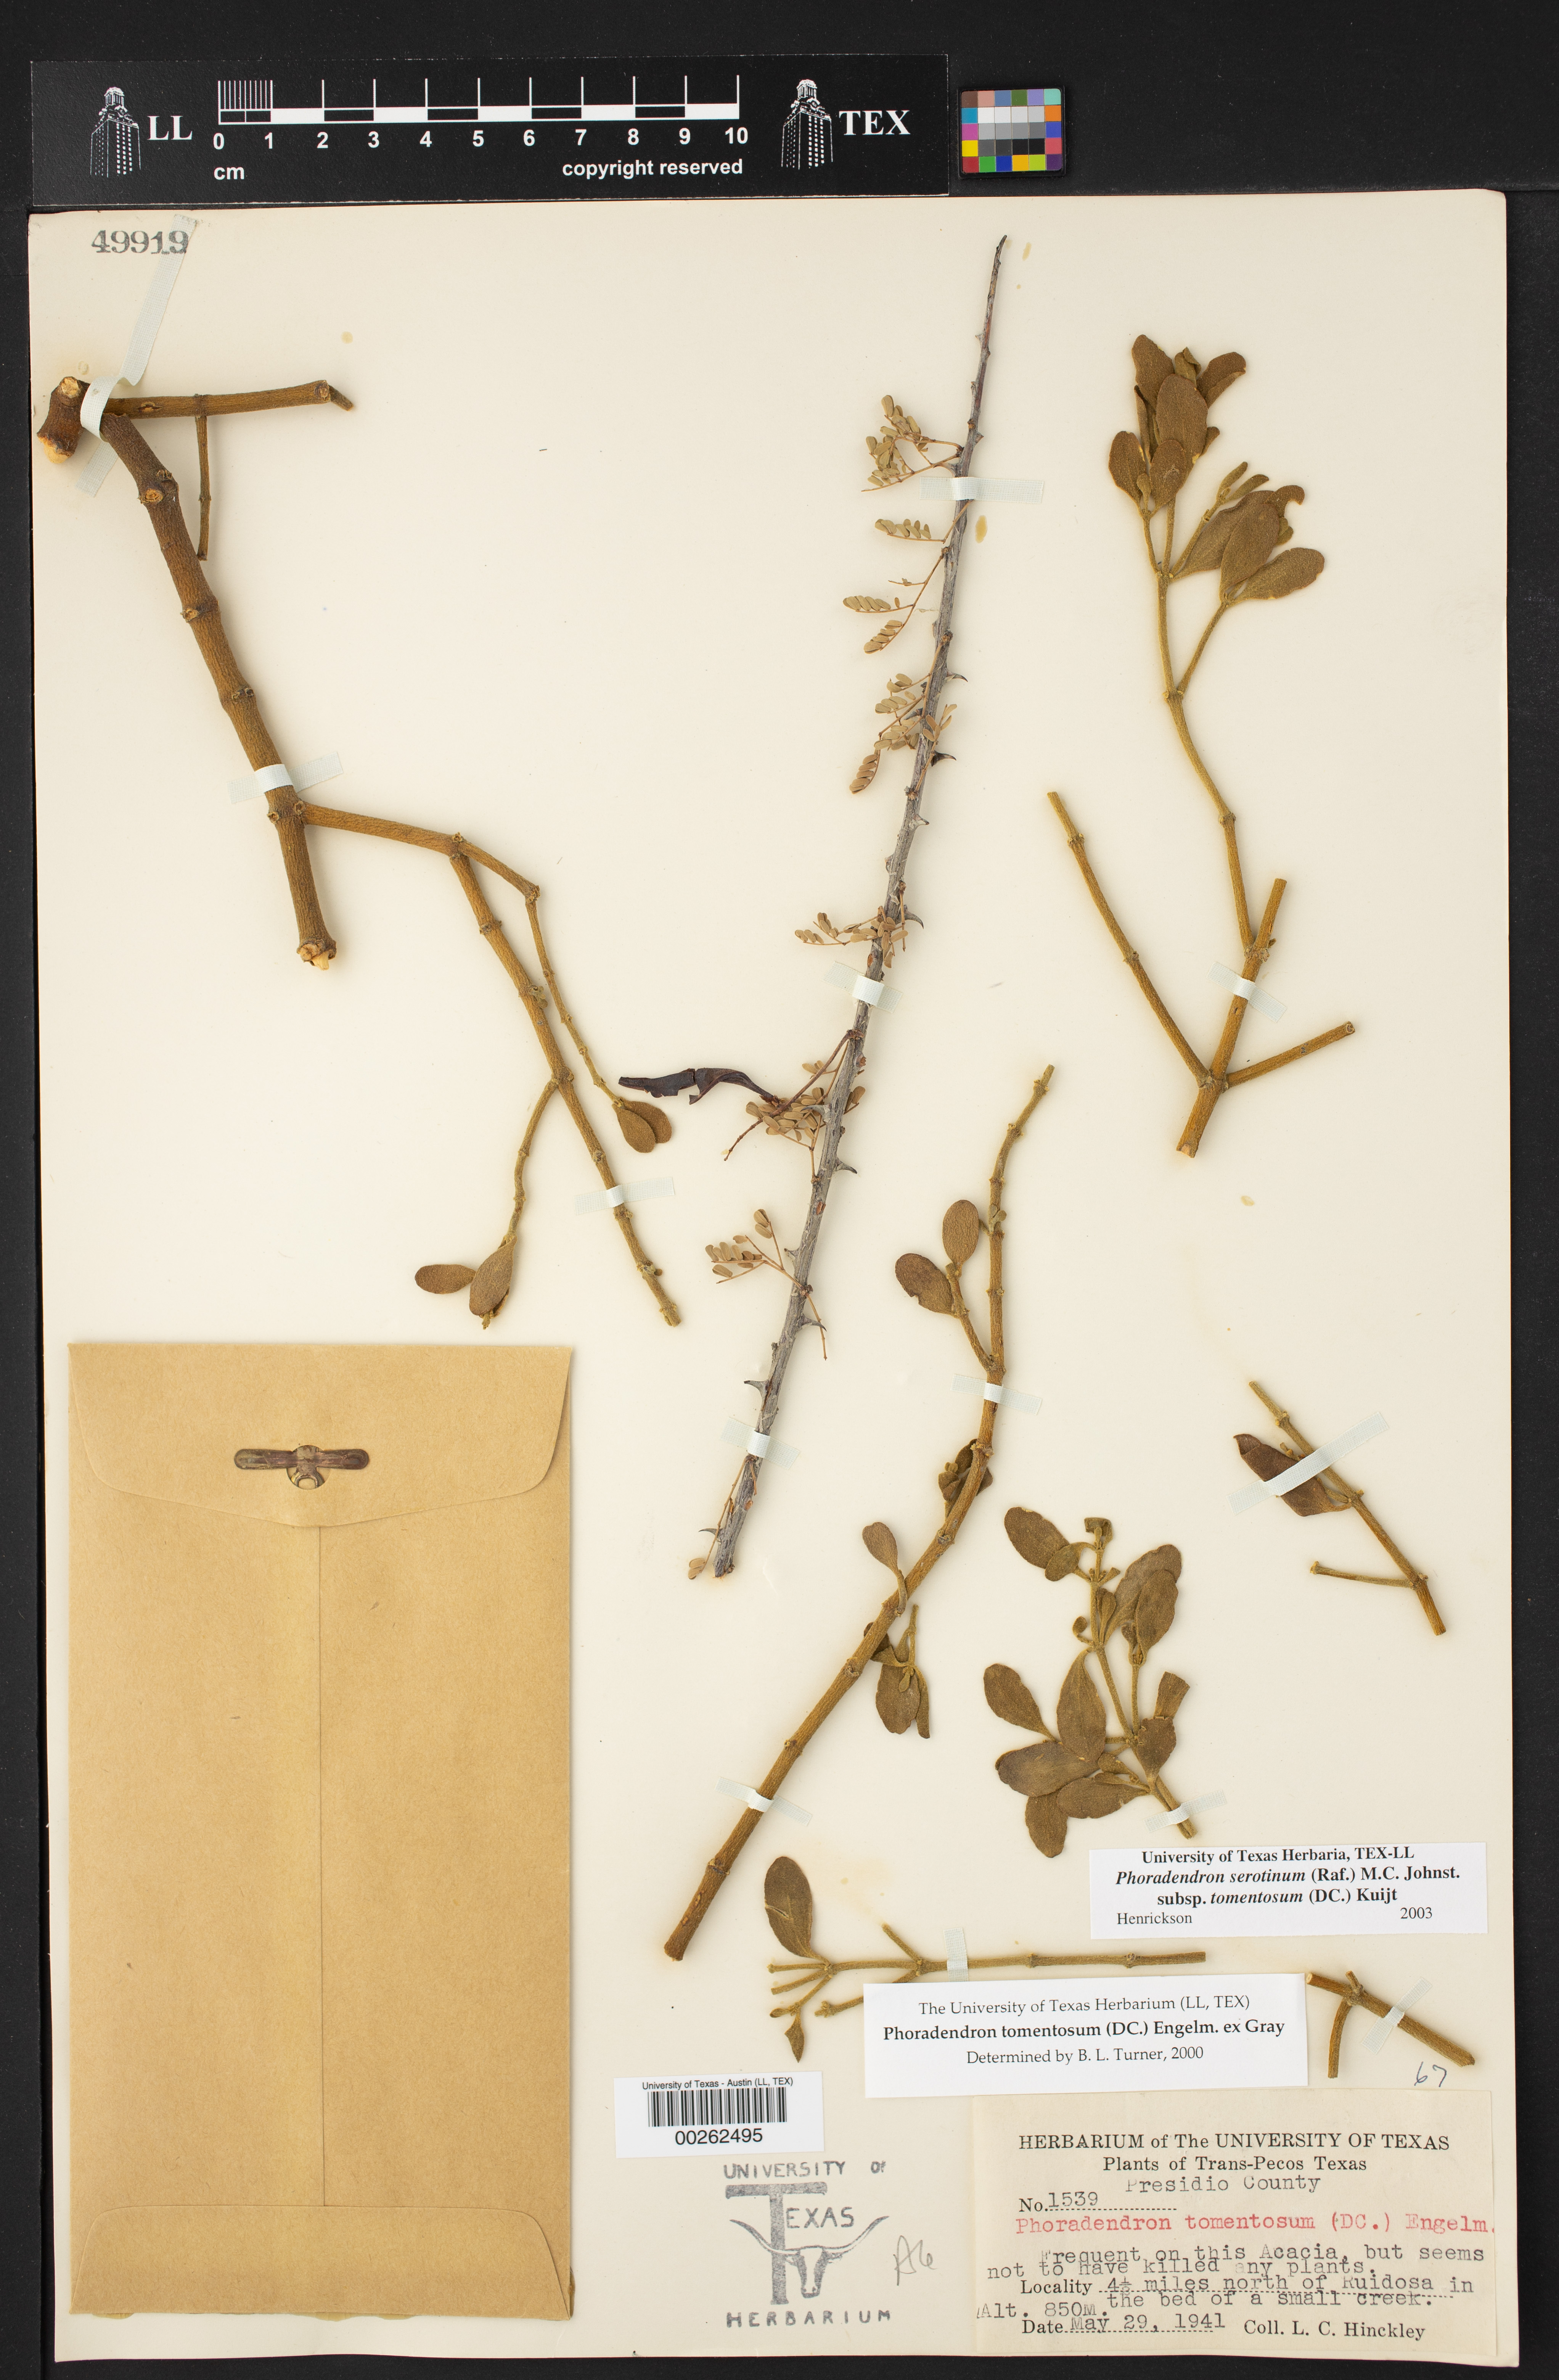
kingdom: Plantae
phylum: Tracheophyta
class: Magnoliopsida
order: Santalales
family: Viscaceae
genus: Phoradendron
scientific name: Phoradendron leucarpum
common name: Pacific mistletoe
